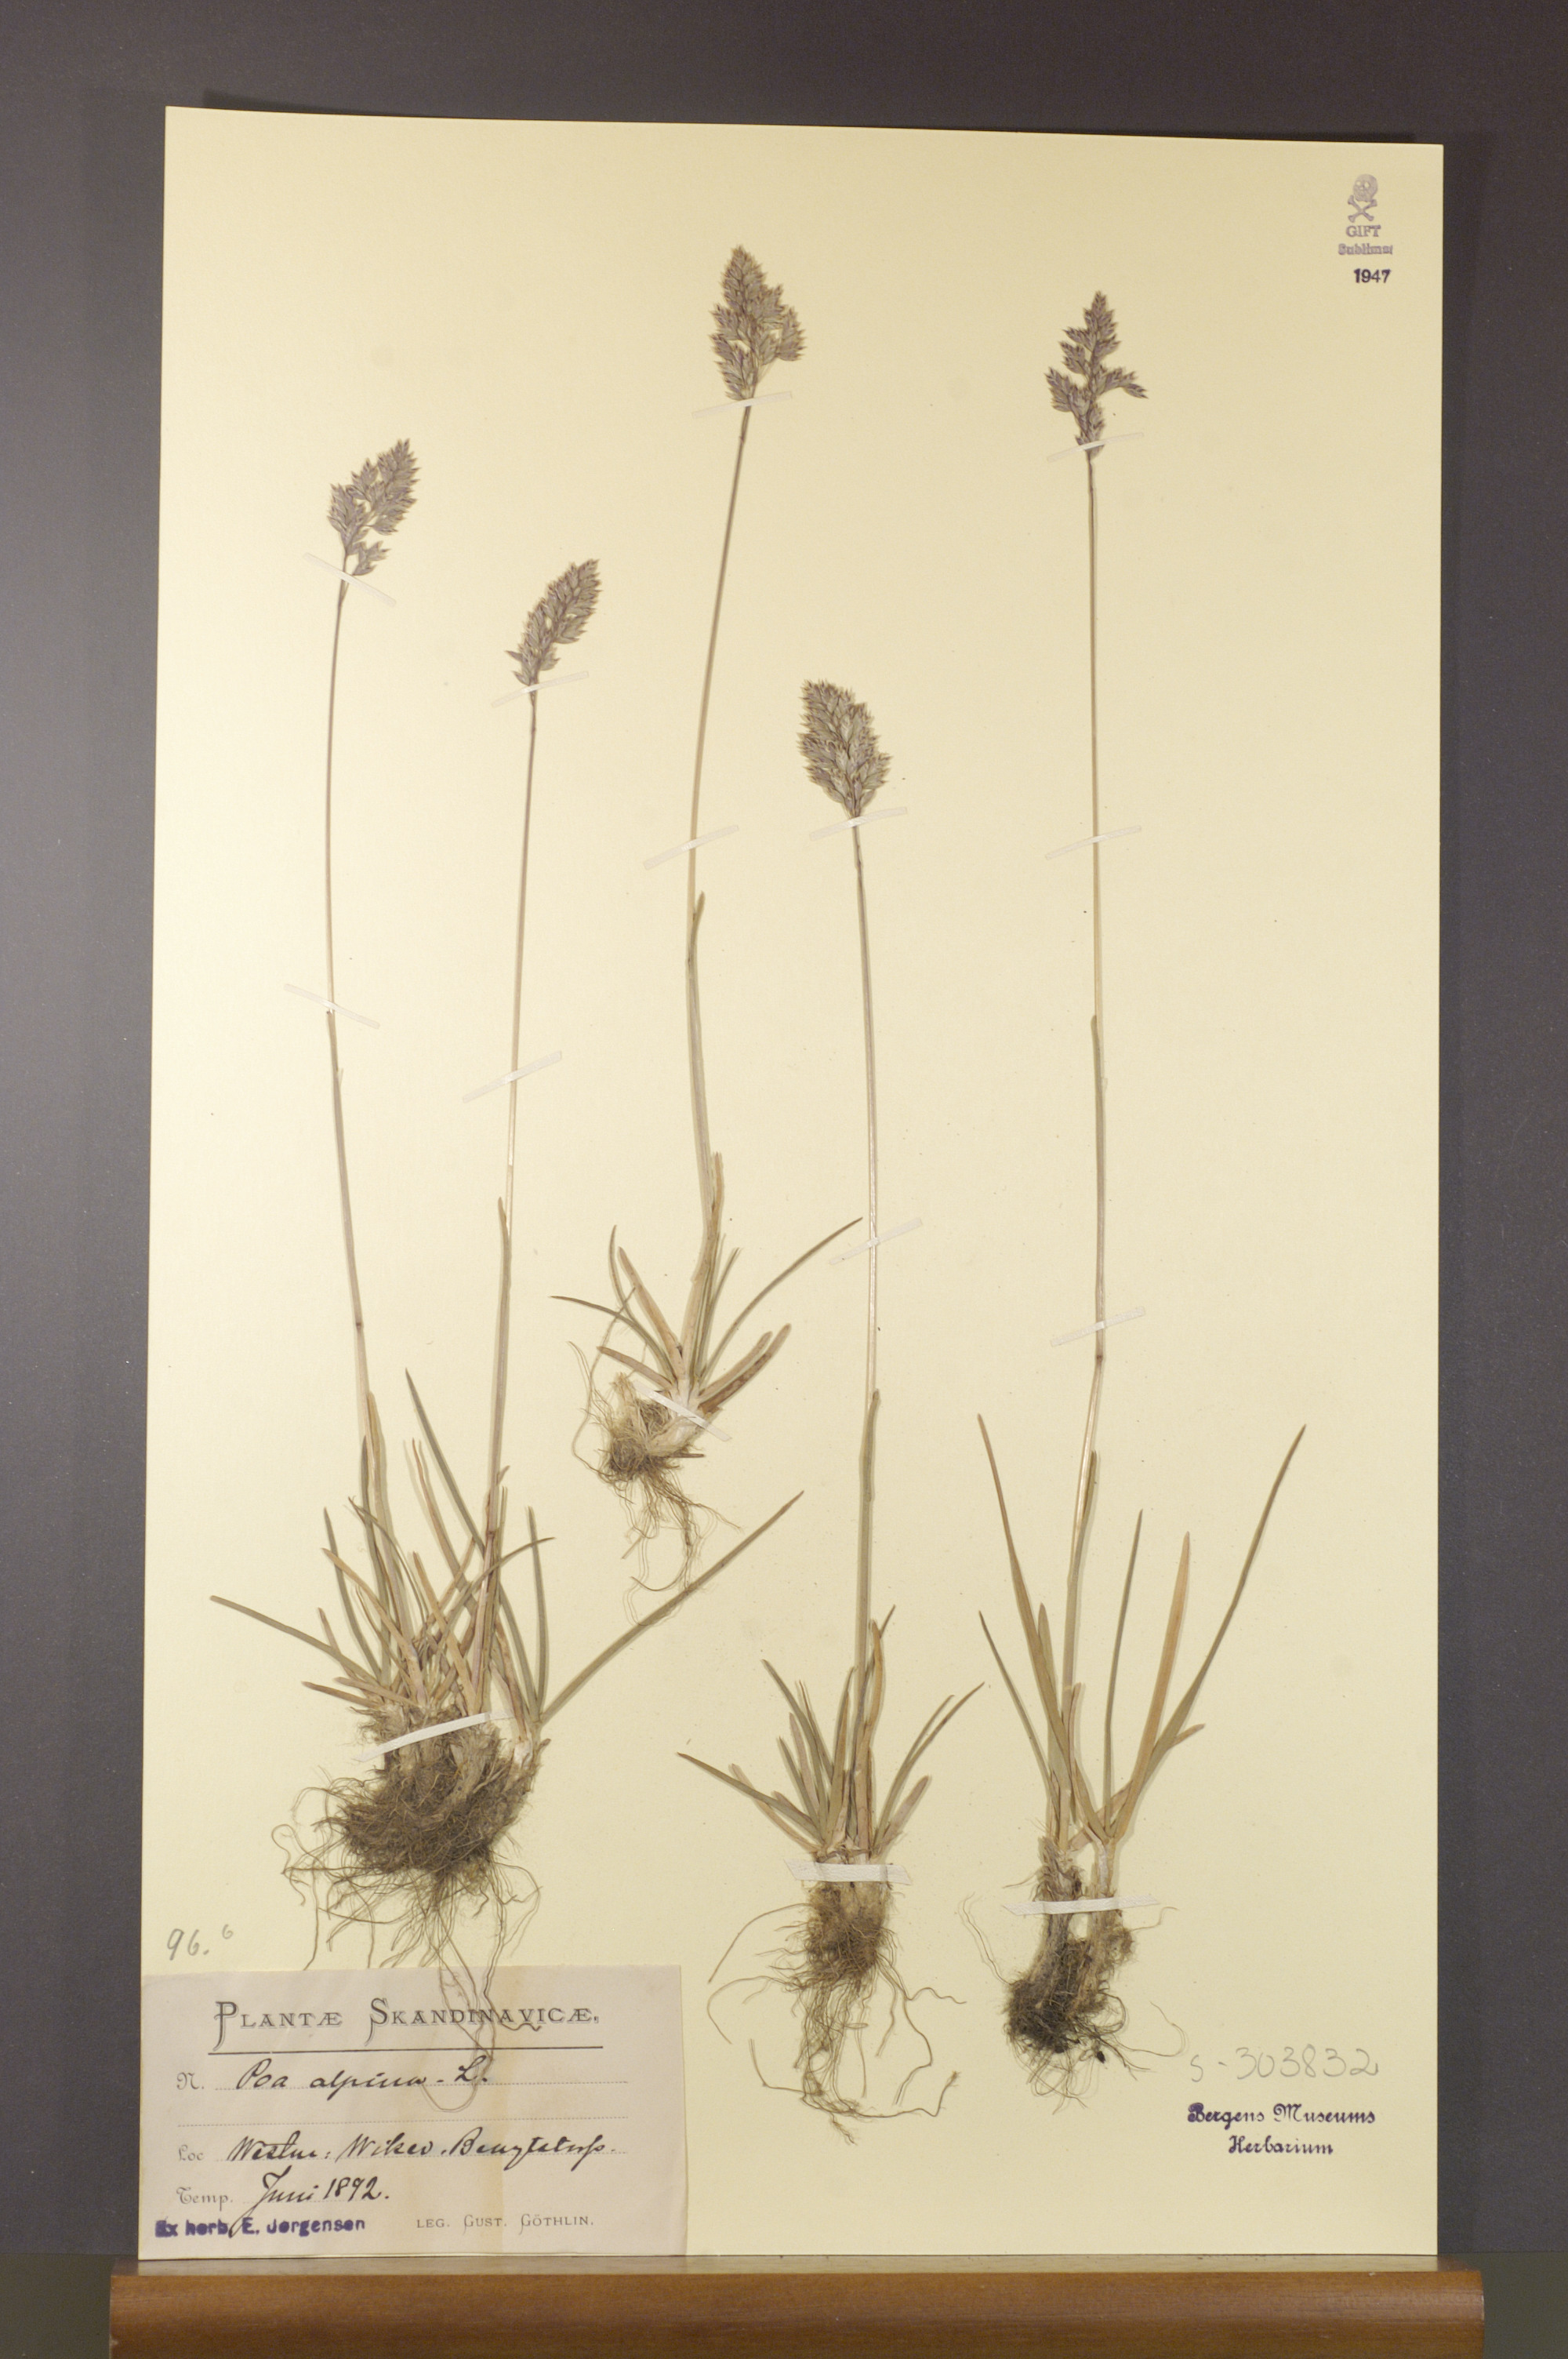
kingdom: Plantae
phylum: Tracheophyta
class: Liliopsida
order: Poales
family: Poaceae
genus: Poa
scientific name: Poa alpina
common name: Alpine bluegrass
